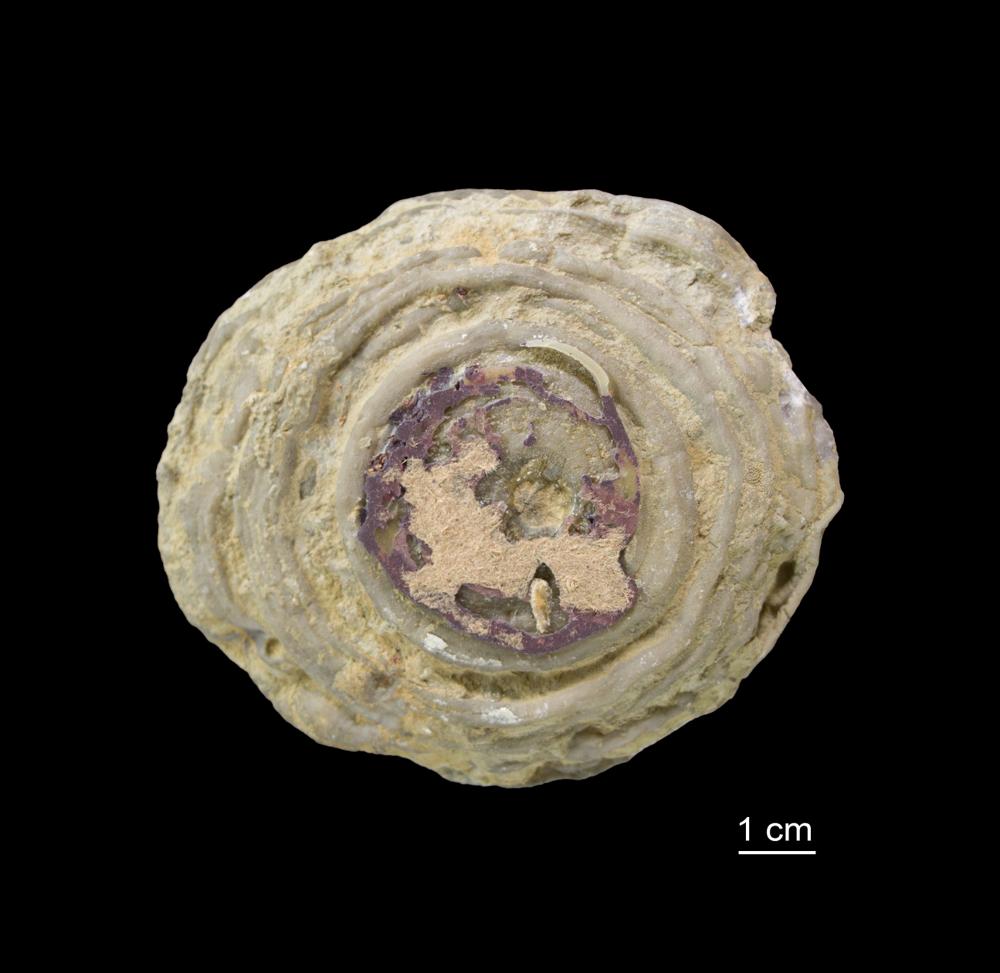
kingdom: Animalia
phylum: Bryozoa
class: Stenolaemata
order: Trepostomatida
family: Monticuliporidae
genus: Homotrypa
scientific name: Homotrypa similis
